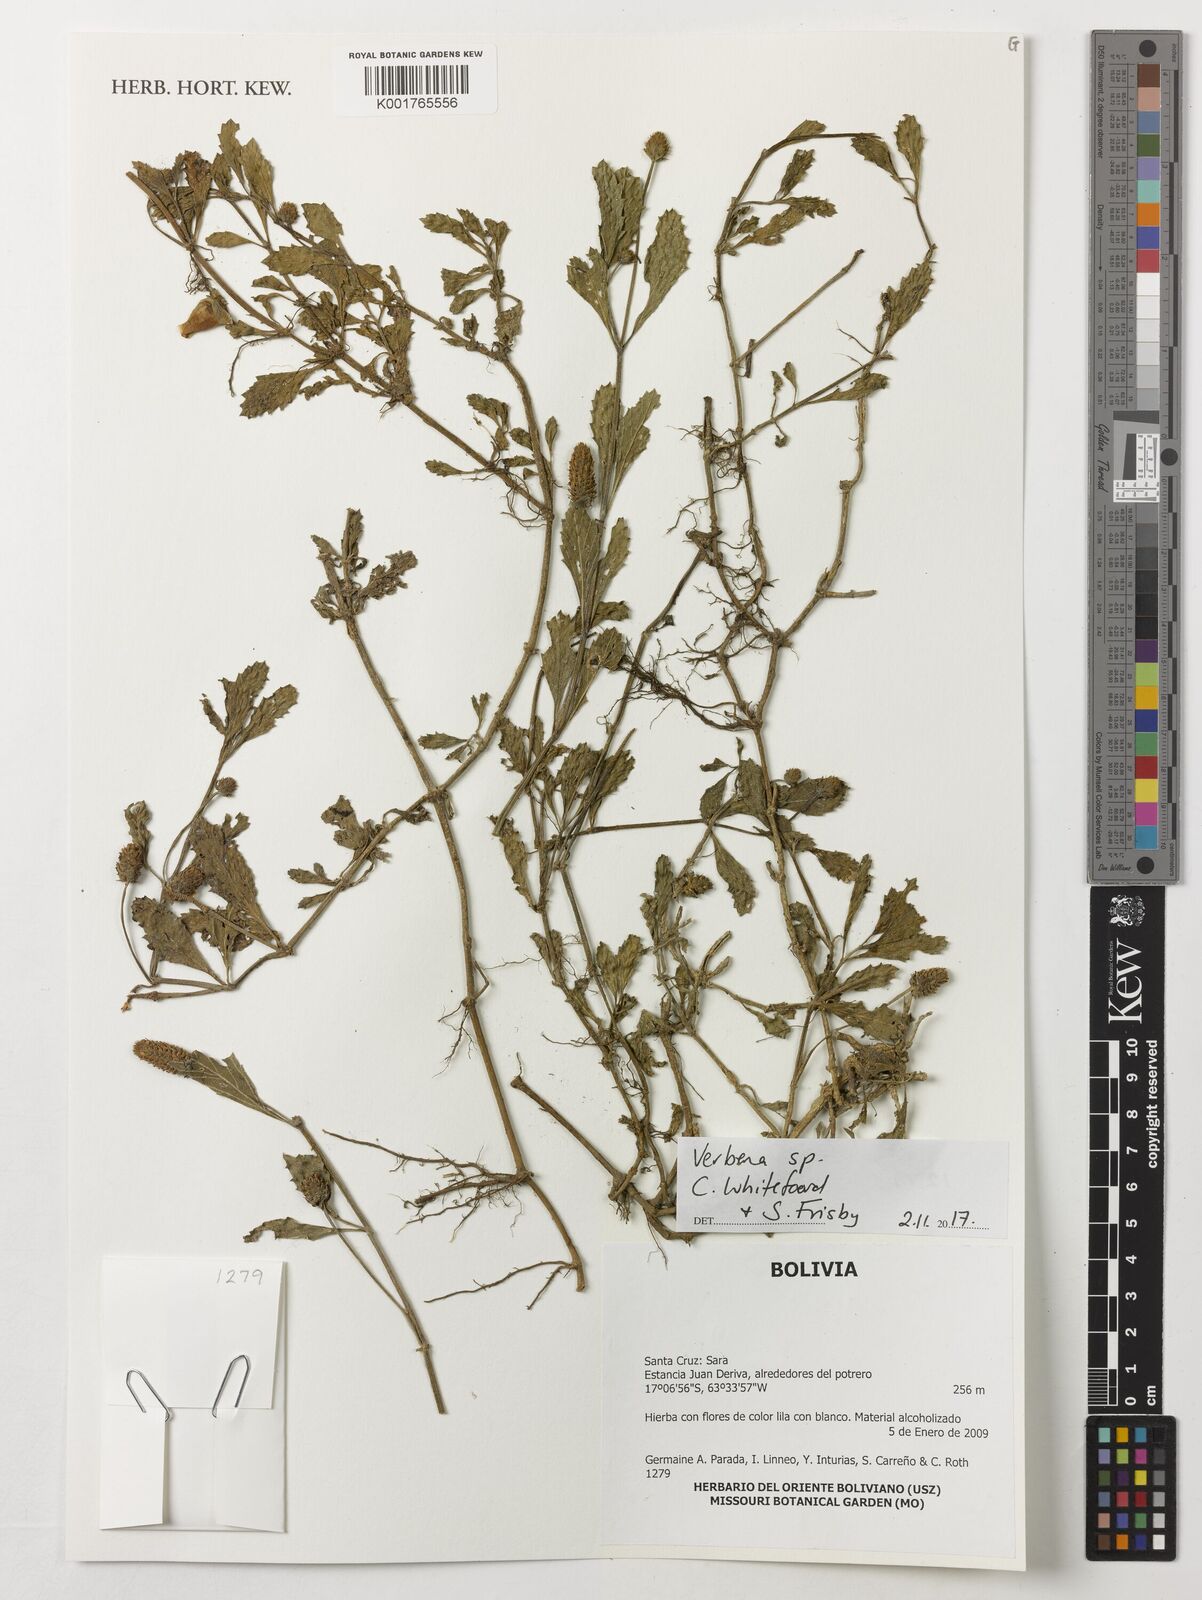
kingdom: Plantae
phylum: Tracheophyta
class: Magnoliopsida
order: Lamiales
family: Verbenaceae
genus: Verbena
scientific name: Verbena
